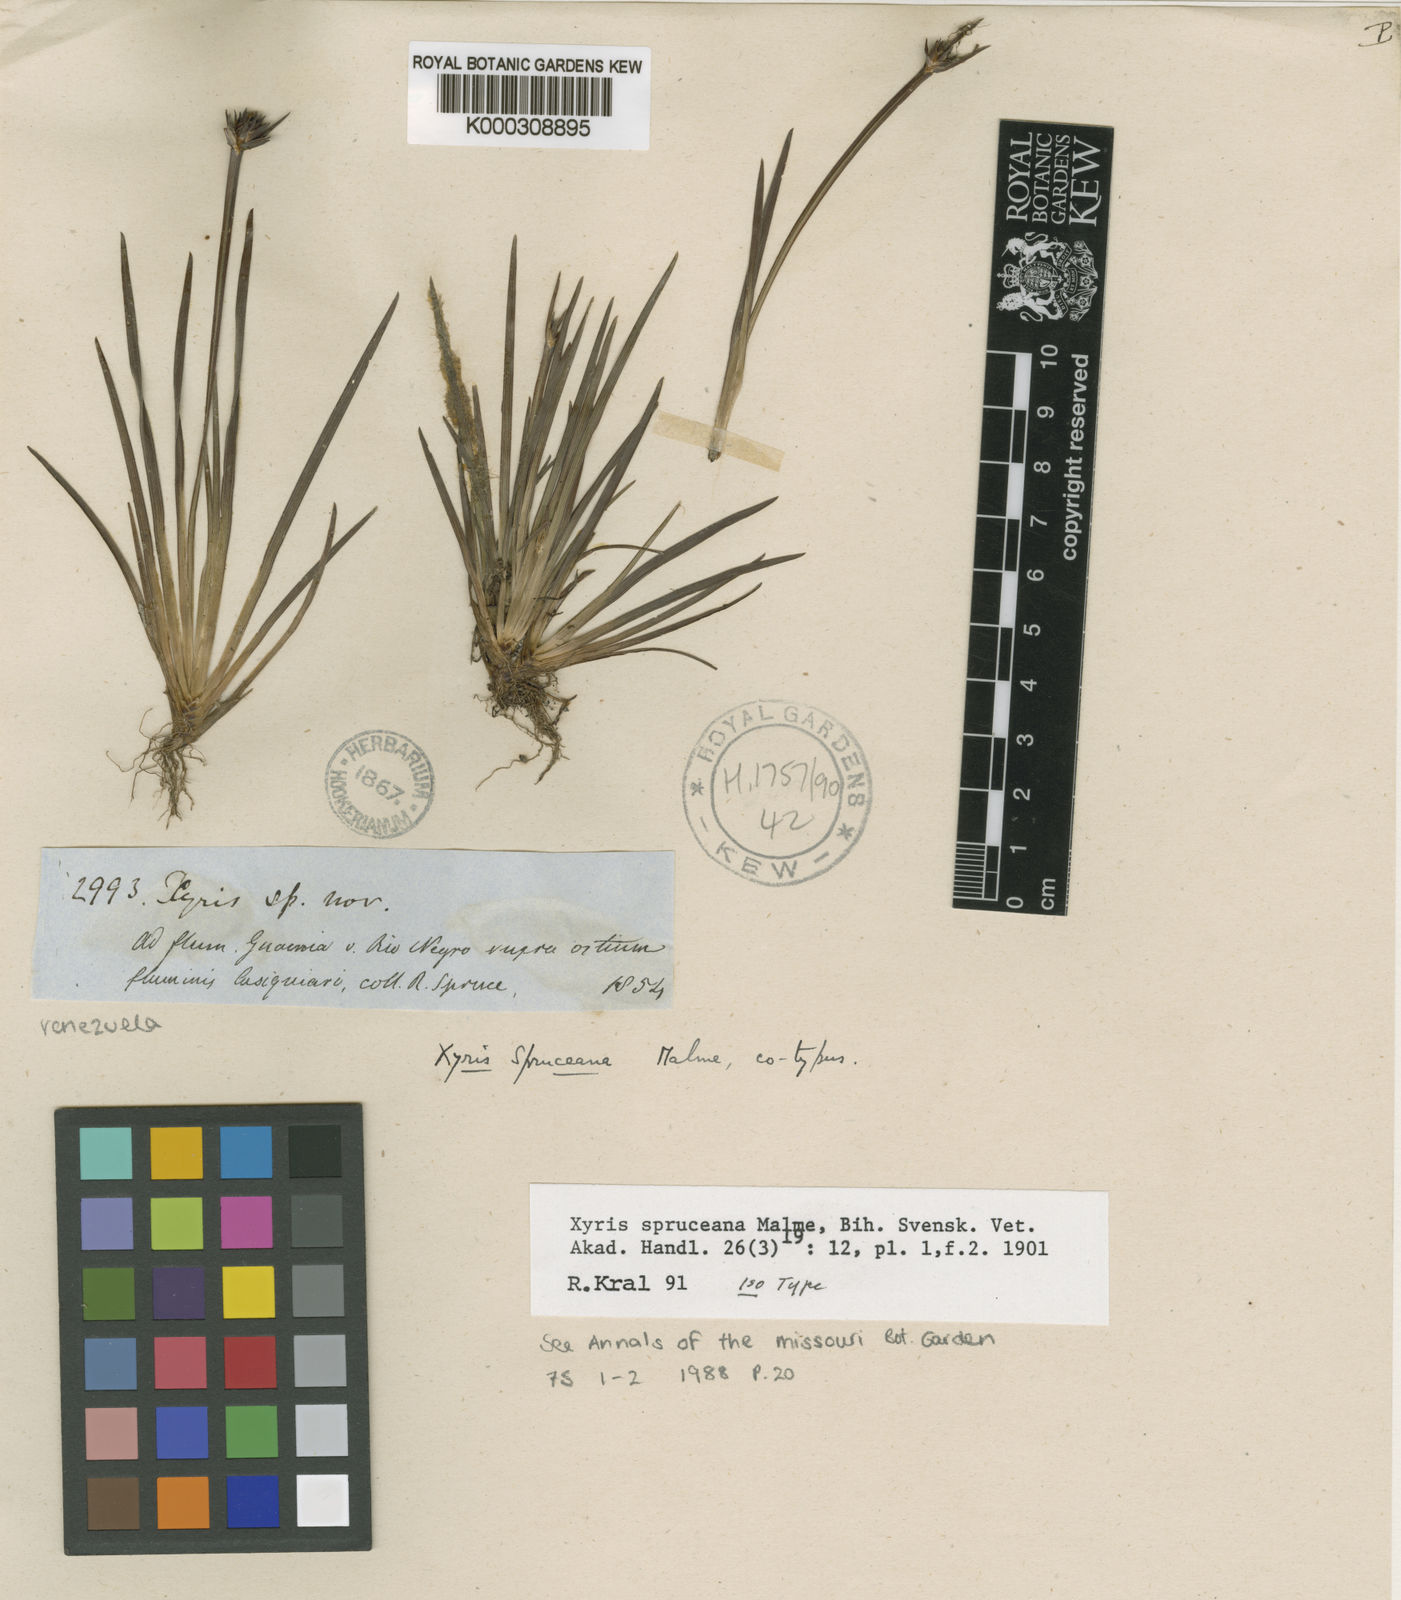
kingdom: Plantae
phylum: Tracheophyta
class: Liliopsida
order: Poales
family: Xyridaceae
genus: Xyris
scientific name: Xyris spruceana
